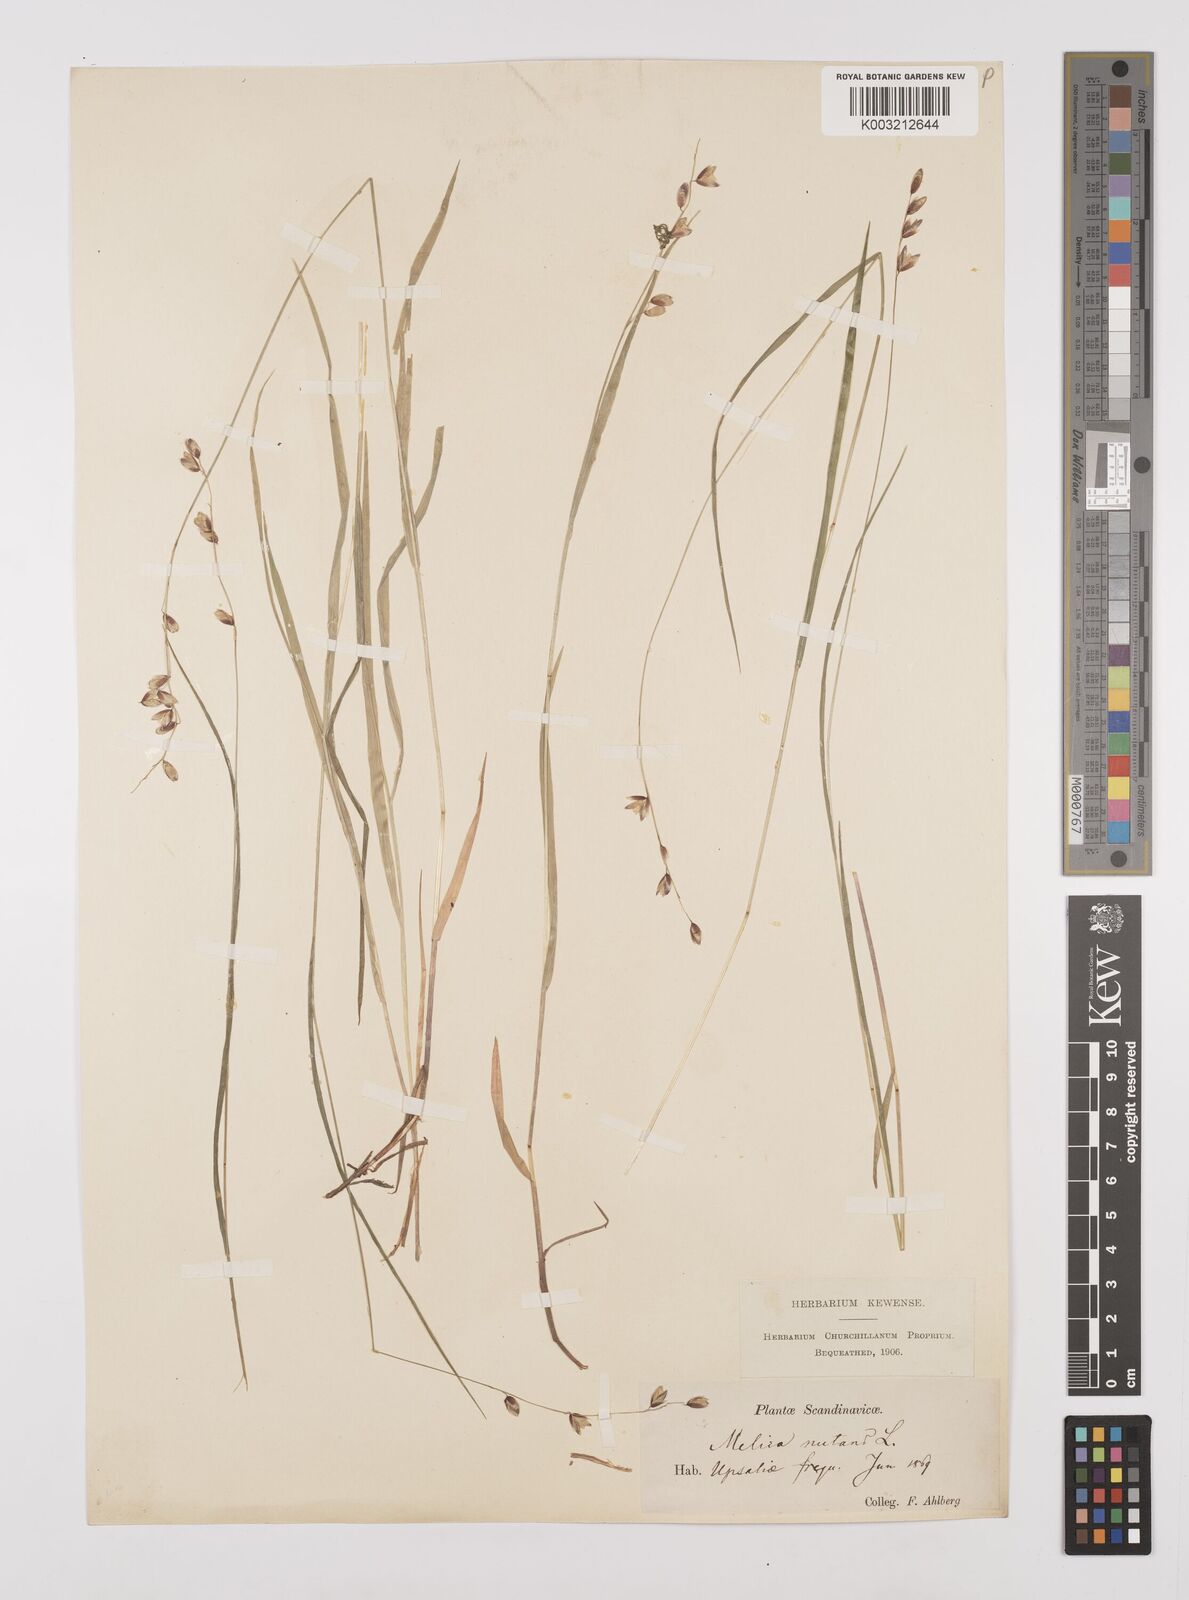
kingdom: Plantae
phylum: Tracheophyta
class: Liliopsida
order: Poales
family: Poaceae
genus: Melica
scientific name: Melica
